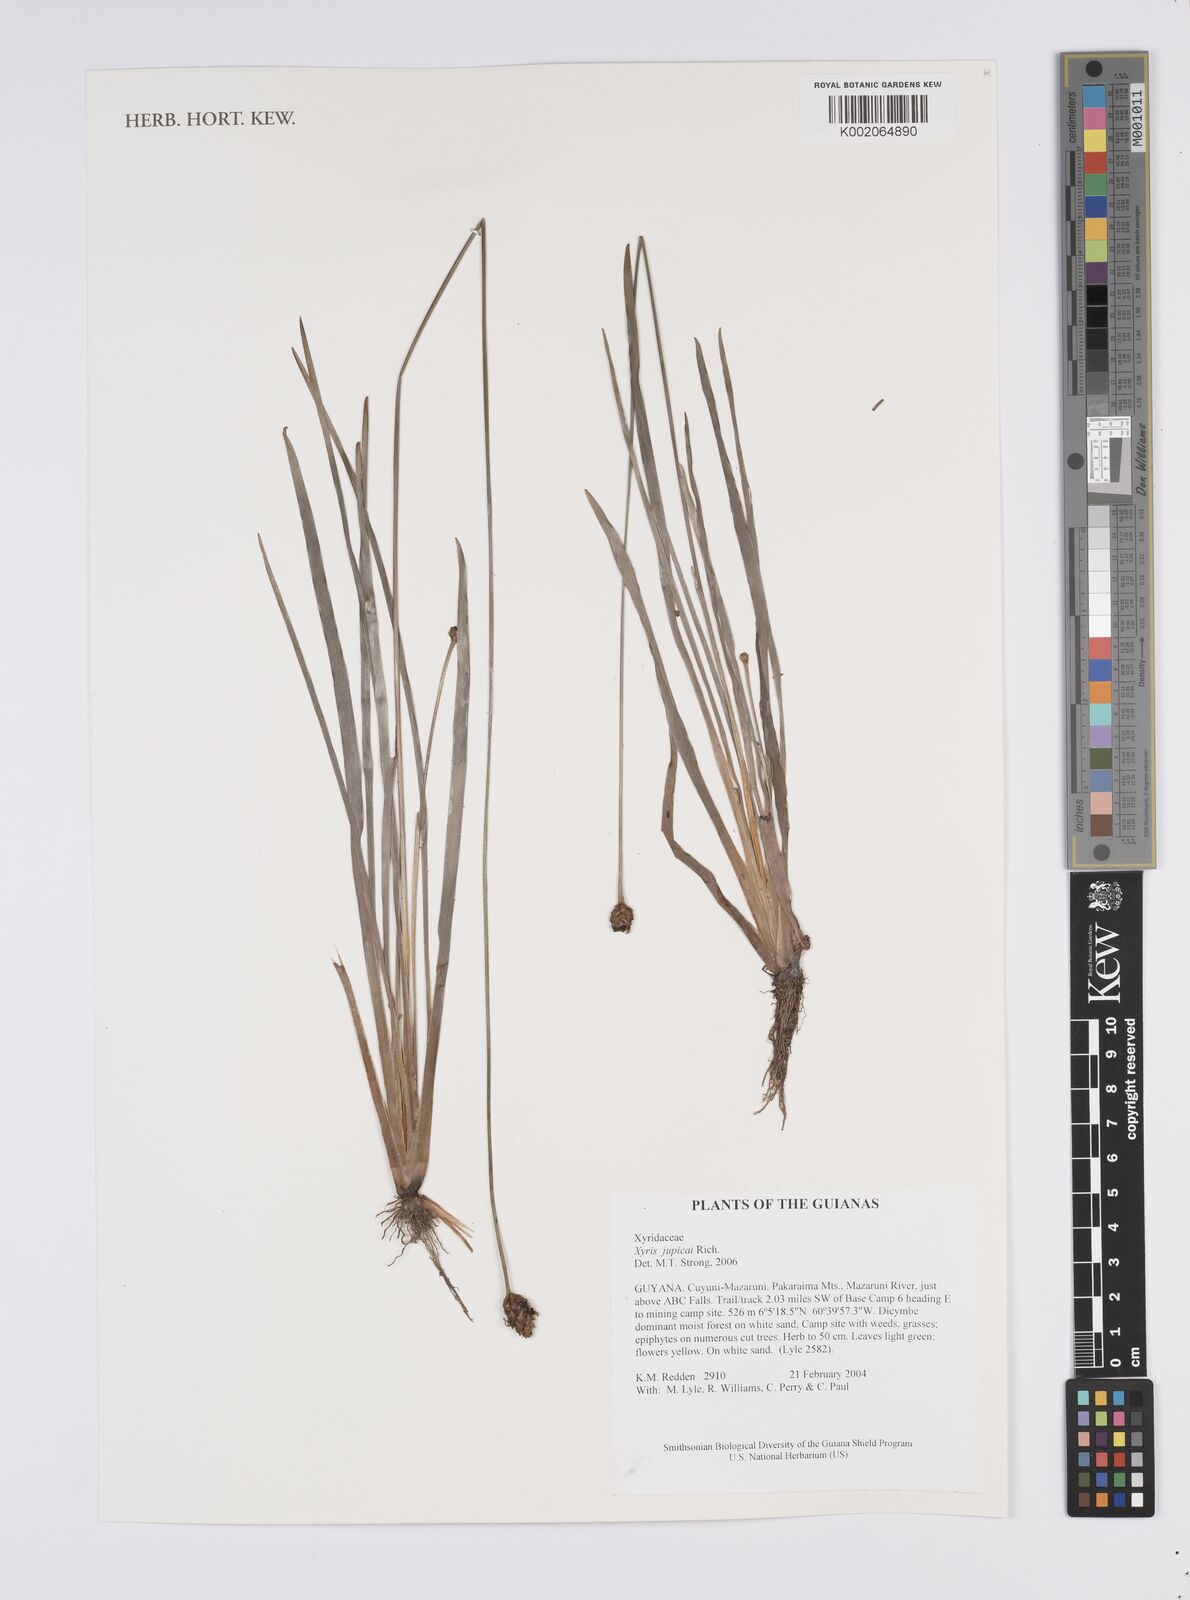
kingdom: Plantae
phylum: Tracheophyta
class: Liliopsida
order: Poales
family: Xyridaceae
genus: Xyris
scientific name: Xyris jupicai
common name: Richard's yelloweyed grass
